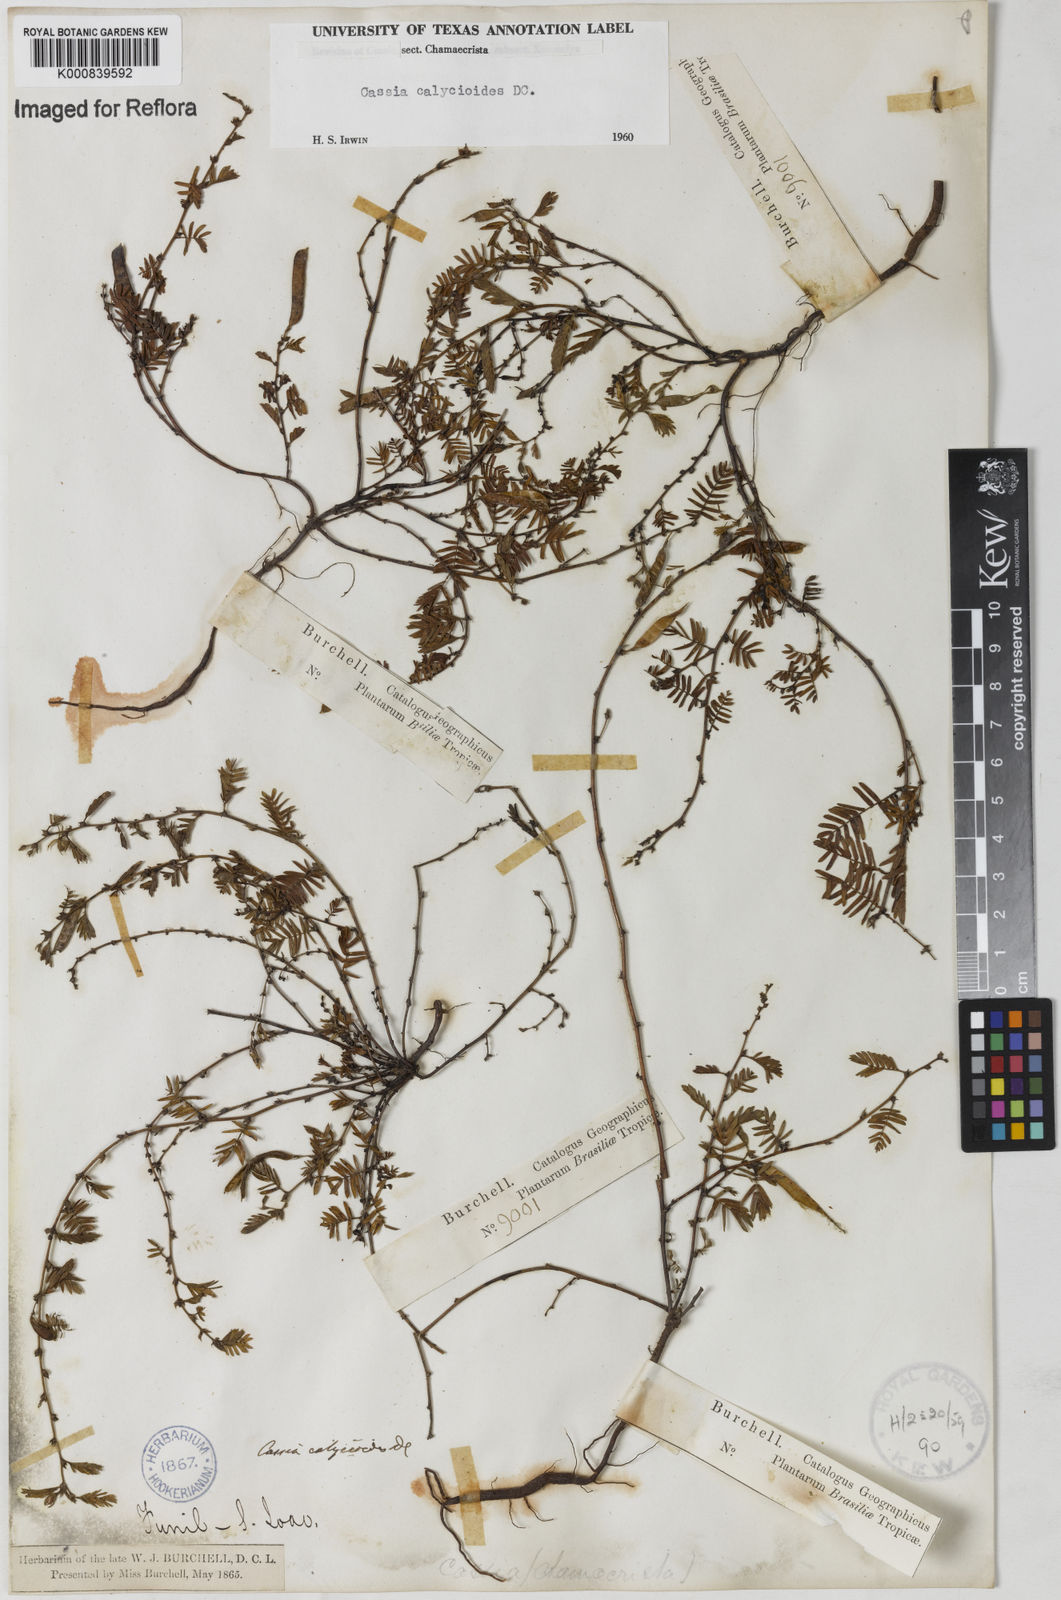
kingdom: Plantae
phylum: Tracheophyta
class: Magnoliopsida
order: Fabales
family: Fabaceae
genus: Chamaecrista
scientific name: Chamaecrista calycioides
